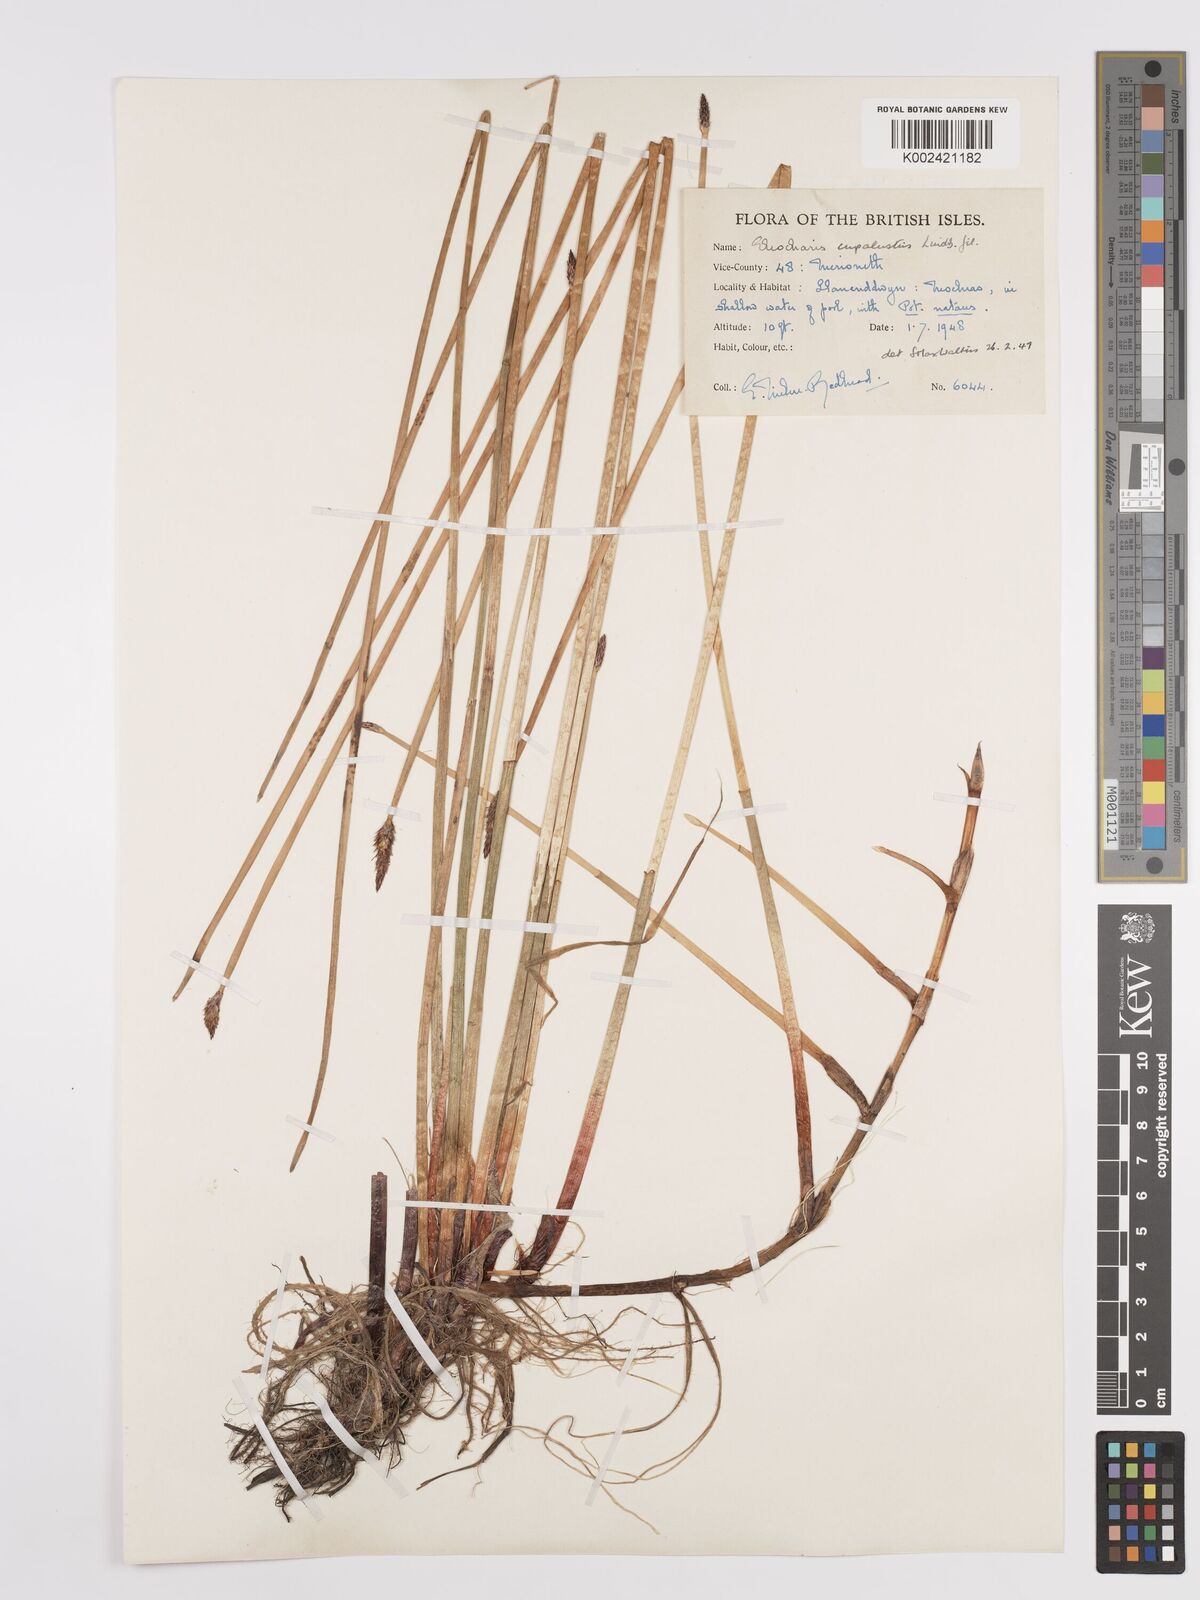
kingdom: Plantae
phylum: Tracheophyta
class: Liliopsida
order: Poales
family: Cyperaceae
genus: Eleocharis
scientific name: Eleocharis palustris
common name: Common spike-rush
